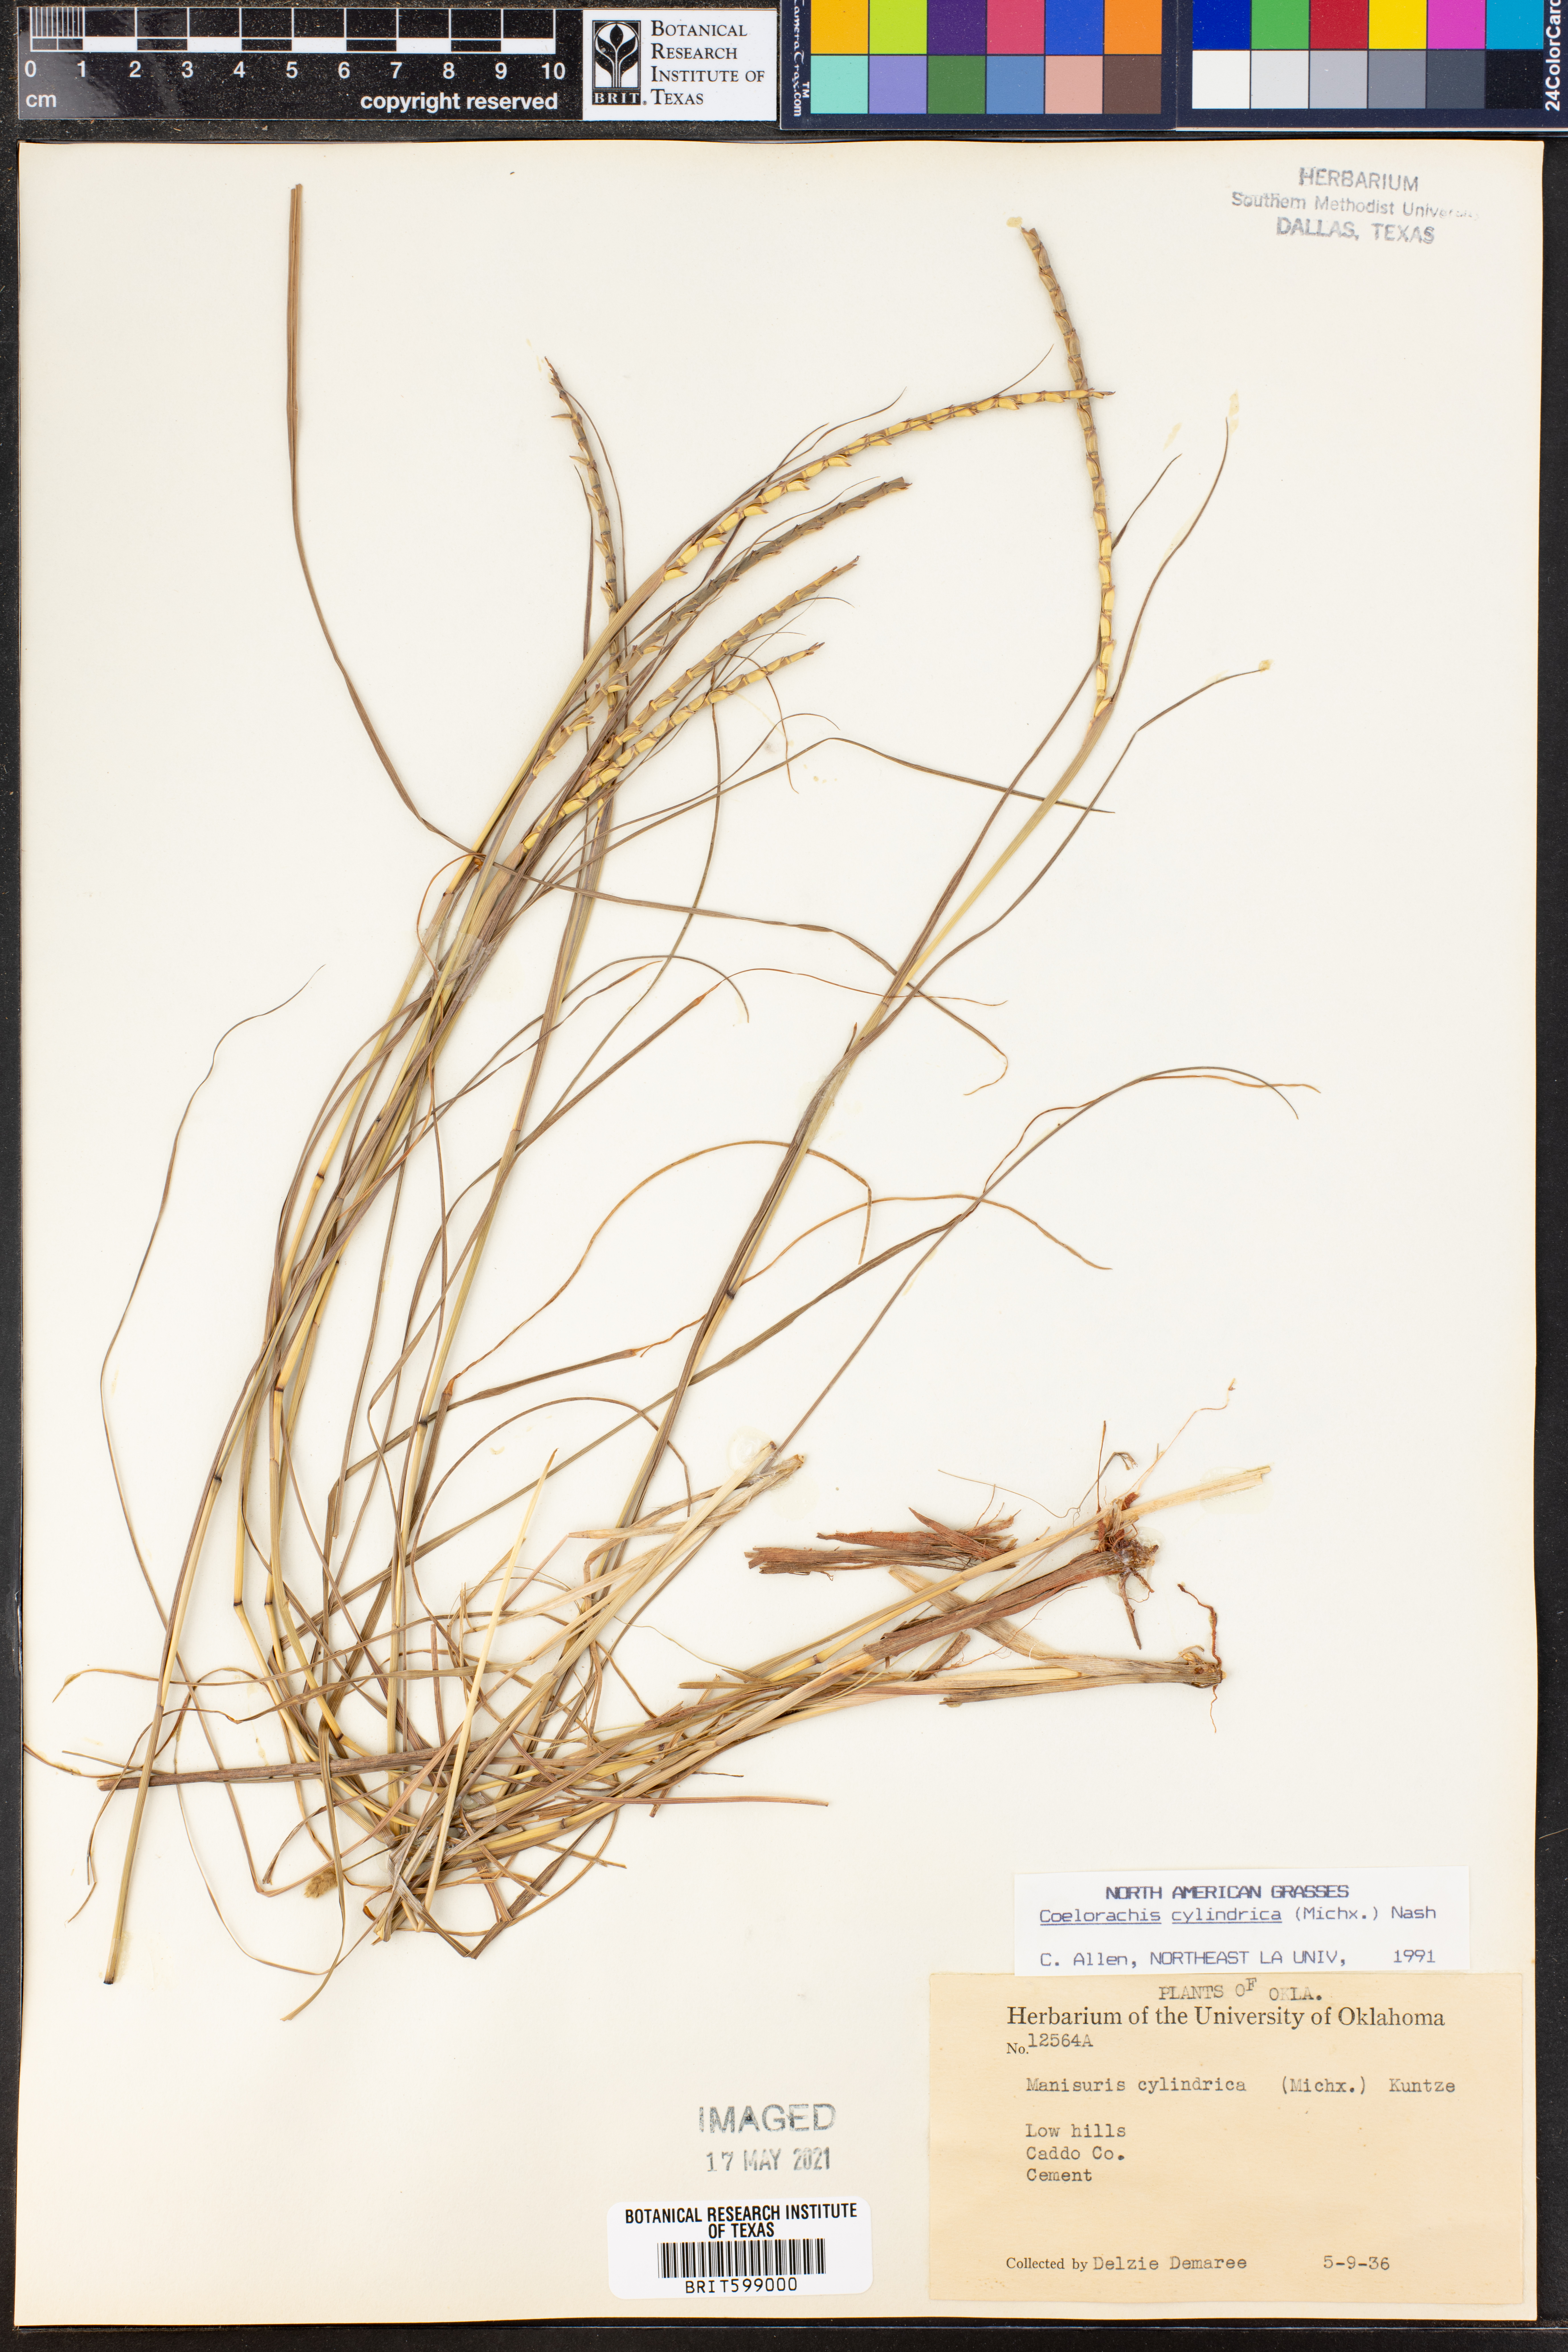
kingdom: Plantae
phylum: Tracheophyta
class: Liliopsida
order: Poales
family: Poaceae
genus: Rottboellia
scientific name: Rottboellia campestris
